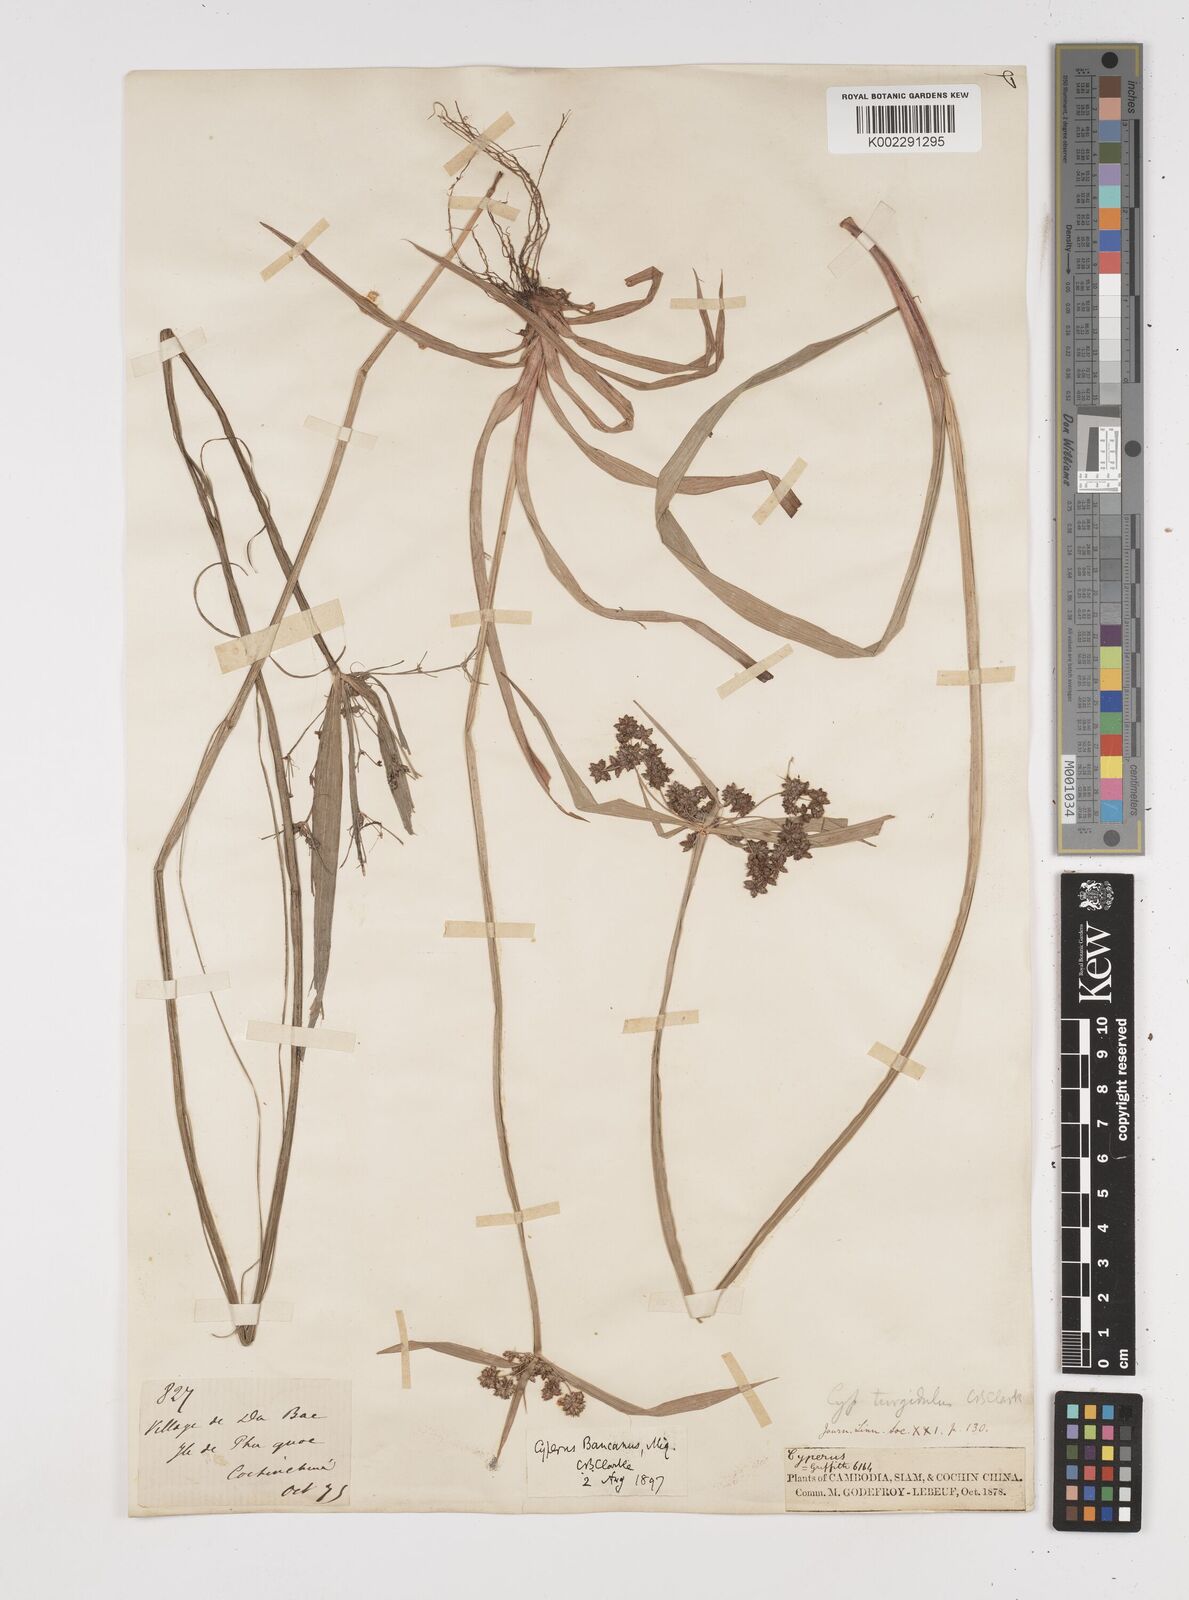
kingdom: Plantae
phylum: Tracheophyta
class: Liliopsida
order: Poales
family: Cyperaceae
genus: Cyperus
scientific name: Cyperus trialatus
